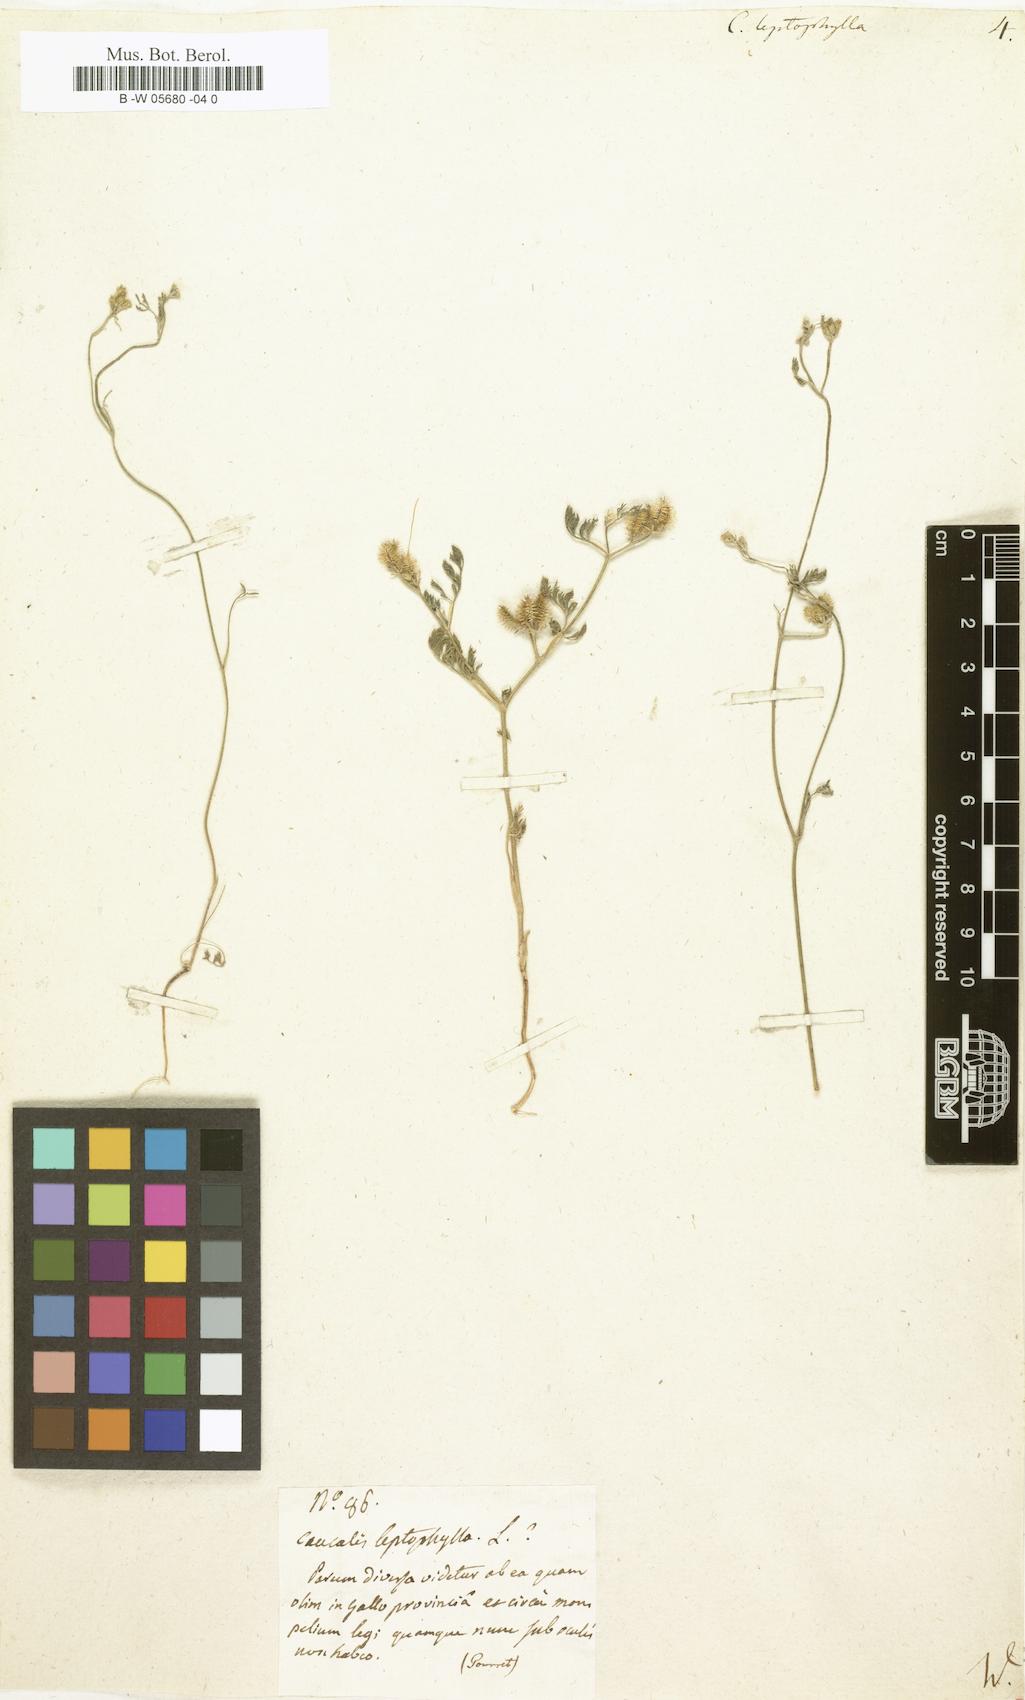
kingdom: Plantae
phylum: Tracheophyta
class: Magnoliopsida
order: Apiales
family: Apiaceae
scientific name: Apiaceae
